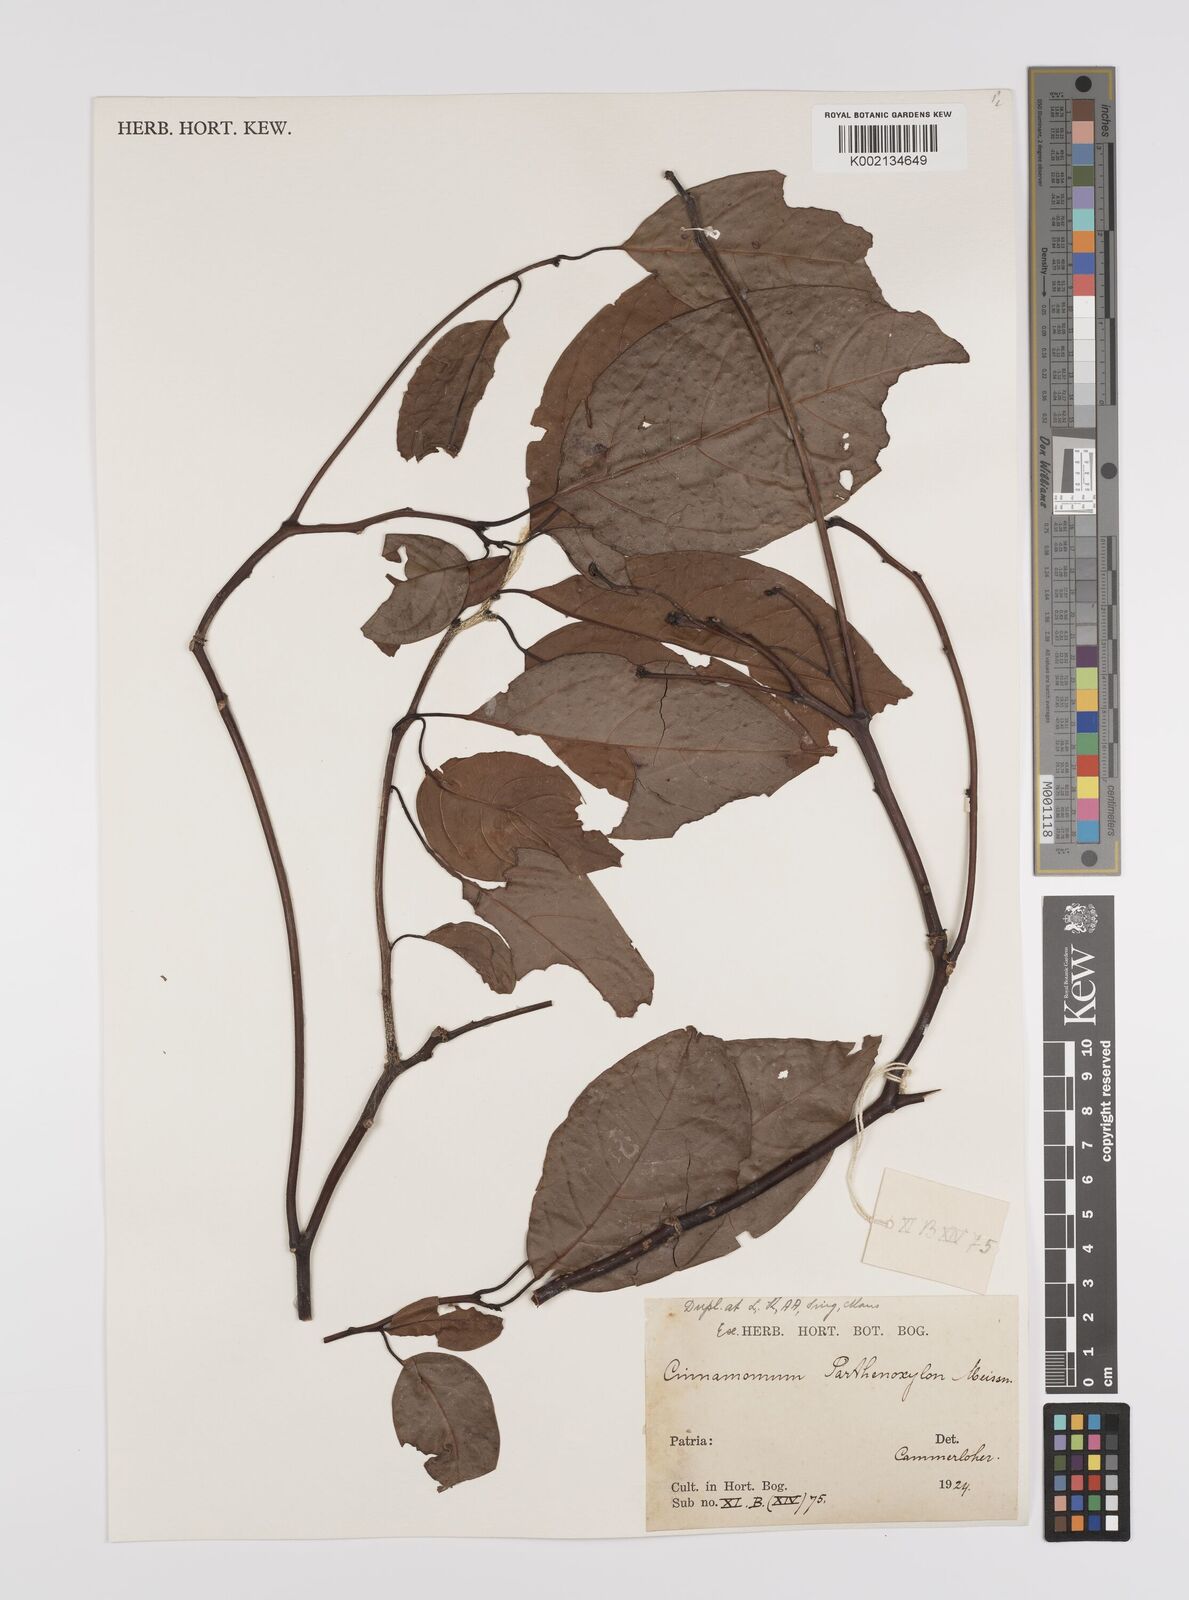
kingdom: Plantae
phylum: Tracheophyta
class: Magnoliopsida
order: Laurales
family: Lauraceae
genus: Cinnamomum
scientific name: Cinnamomum parthenoxylon
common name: Martaban camphor wood
